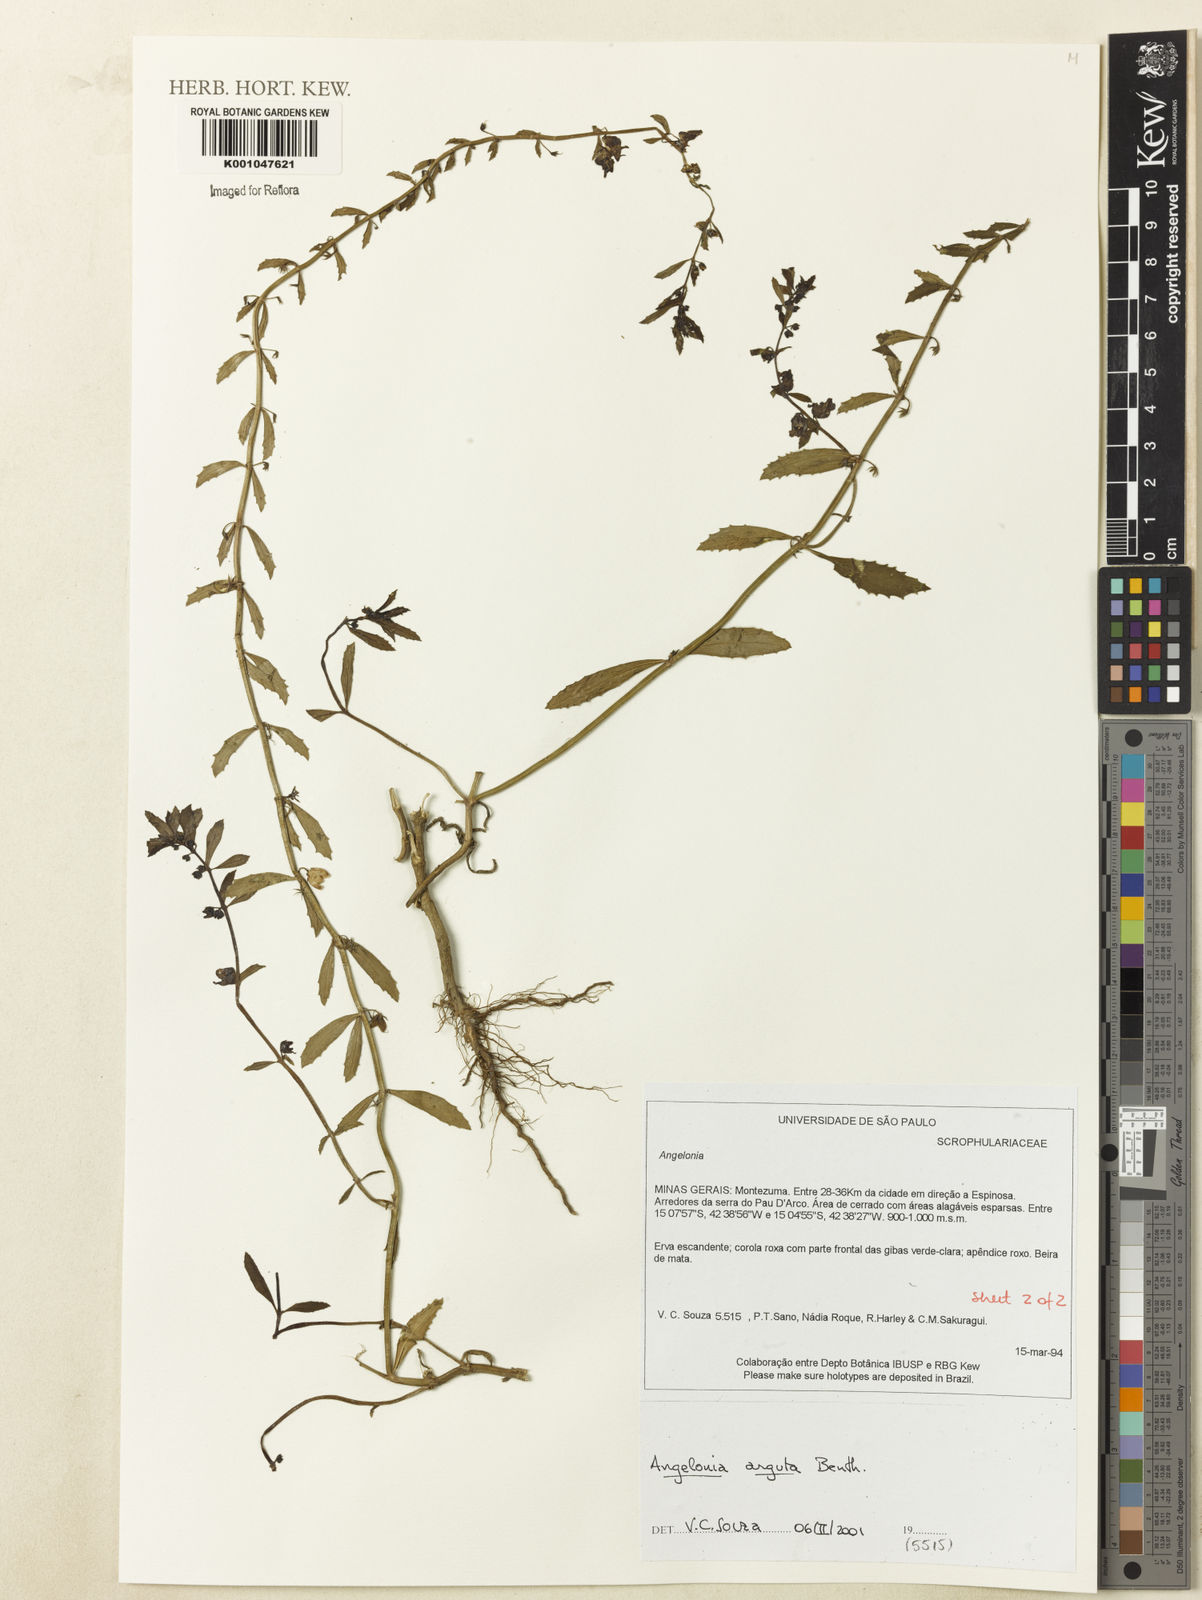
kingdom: Plantae
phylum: Tracheophyta
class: Magnoliopsida
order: Lamiales
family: Plantaginaceae
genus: Angelonia
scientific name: Angelonia arguta
